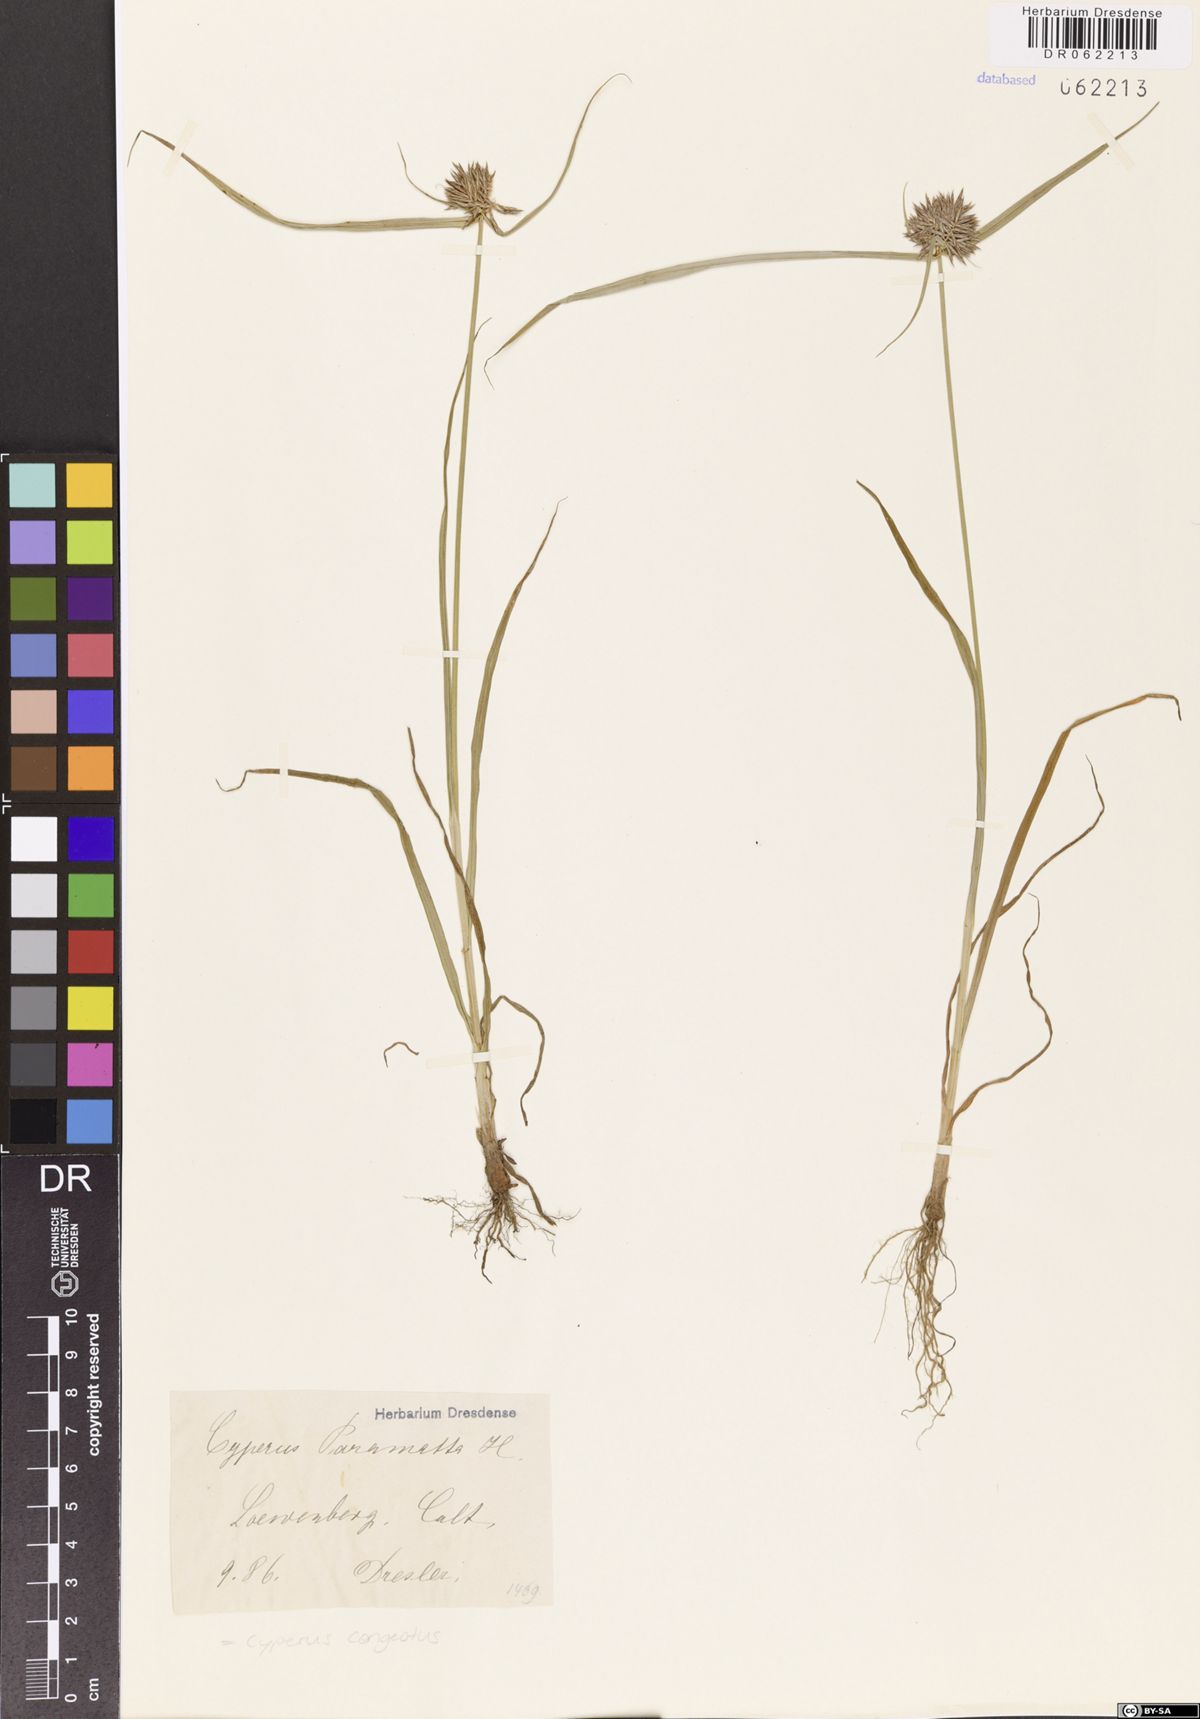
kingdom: Plantae
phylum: Tracheophyta
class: Liliopsida
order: Poales
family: Cyperaceae
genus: Cyperus
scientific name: Cyperus congestus
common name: Dense flat sedge
